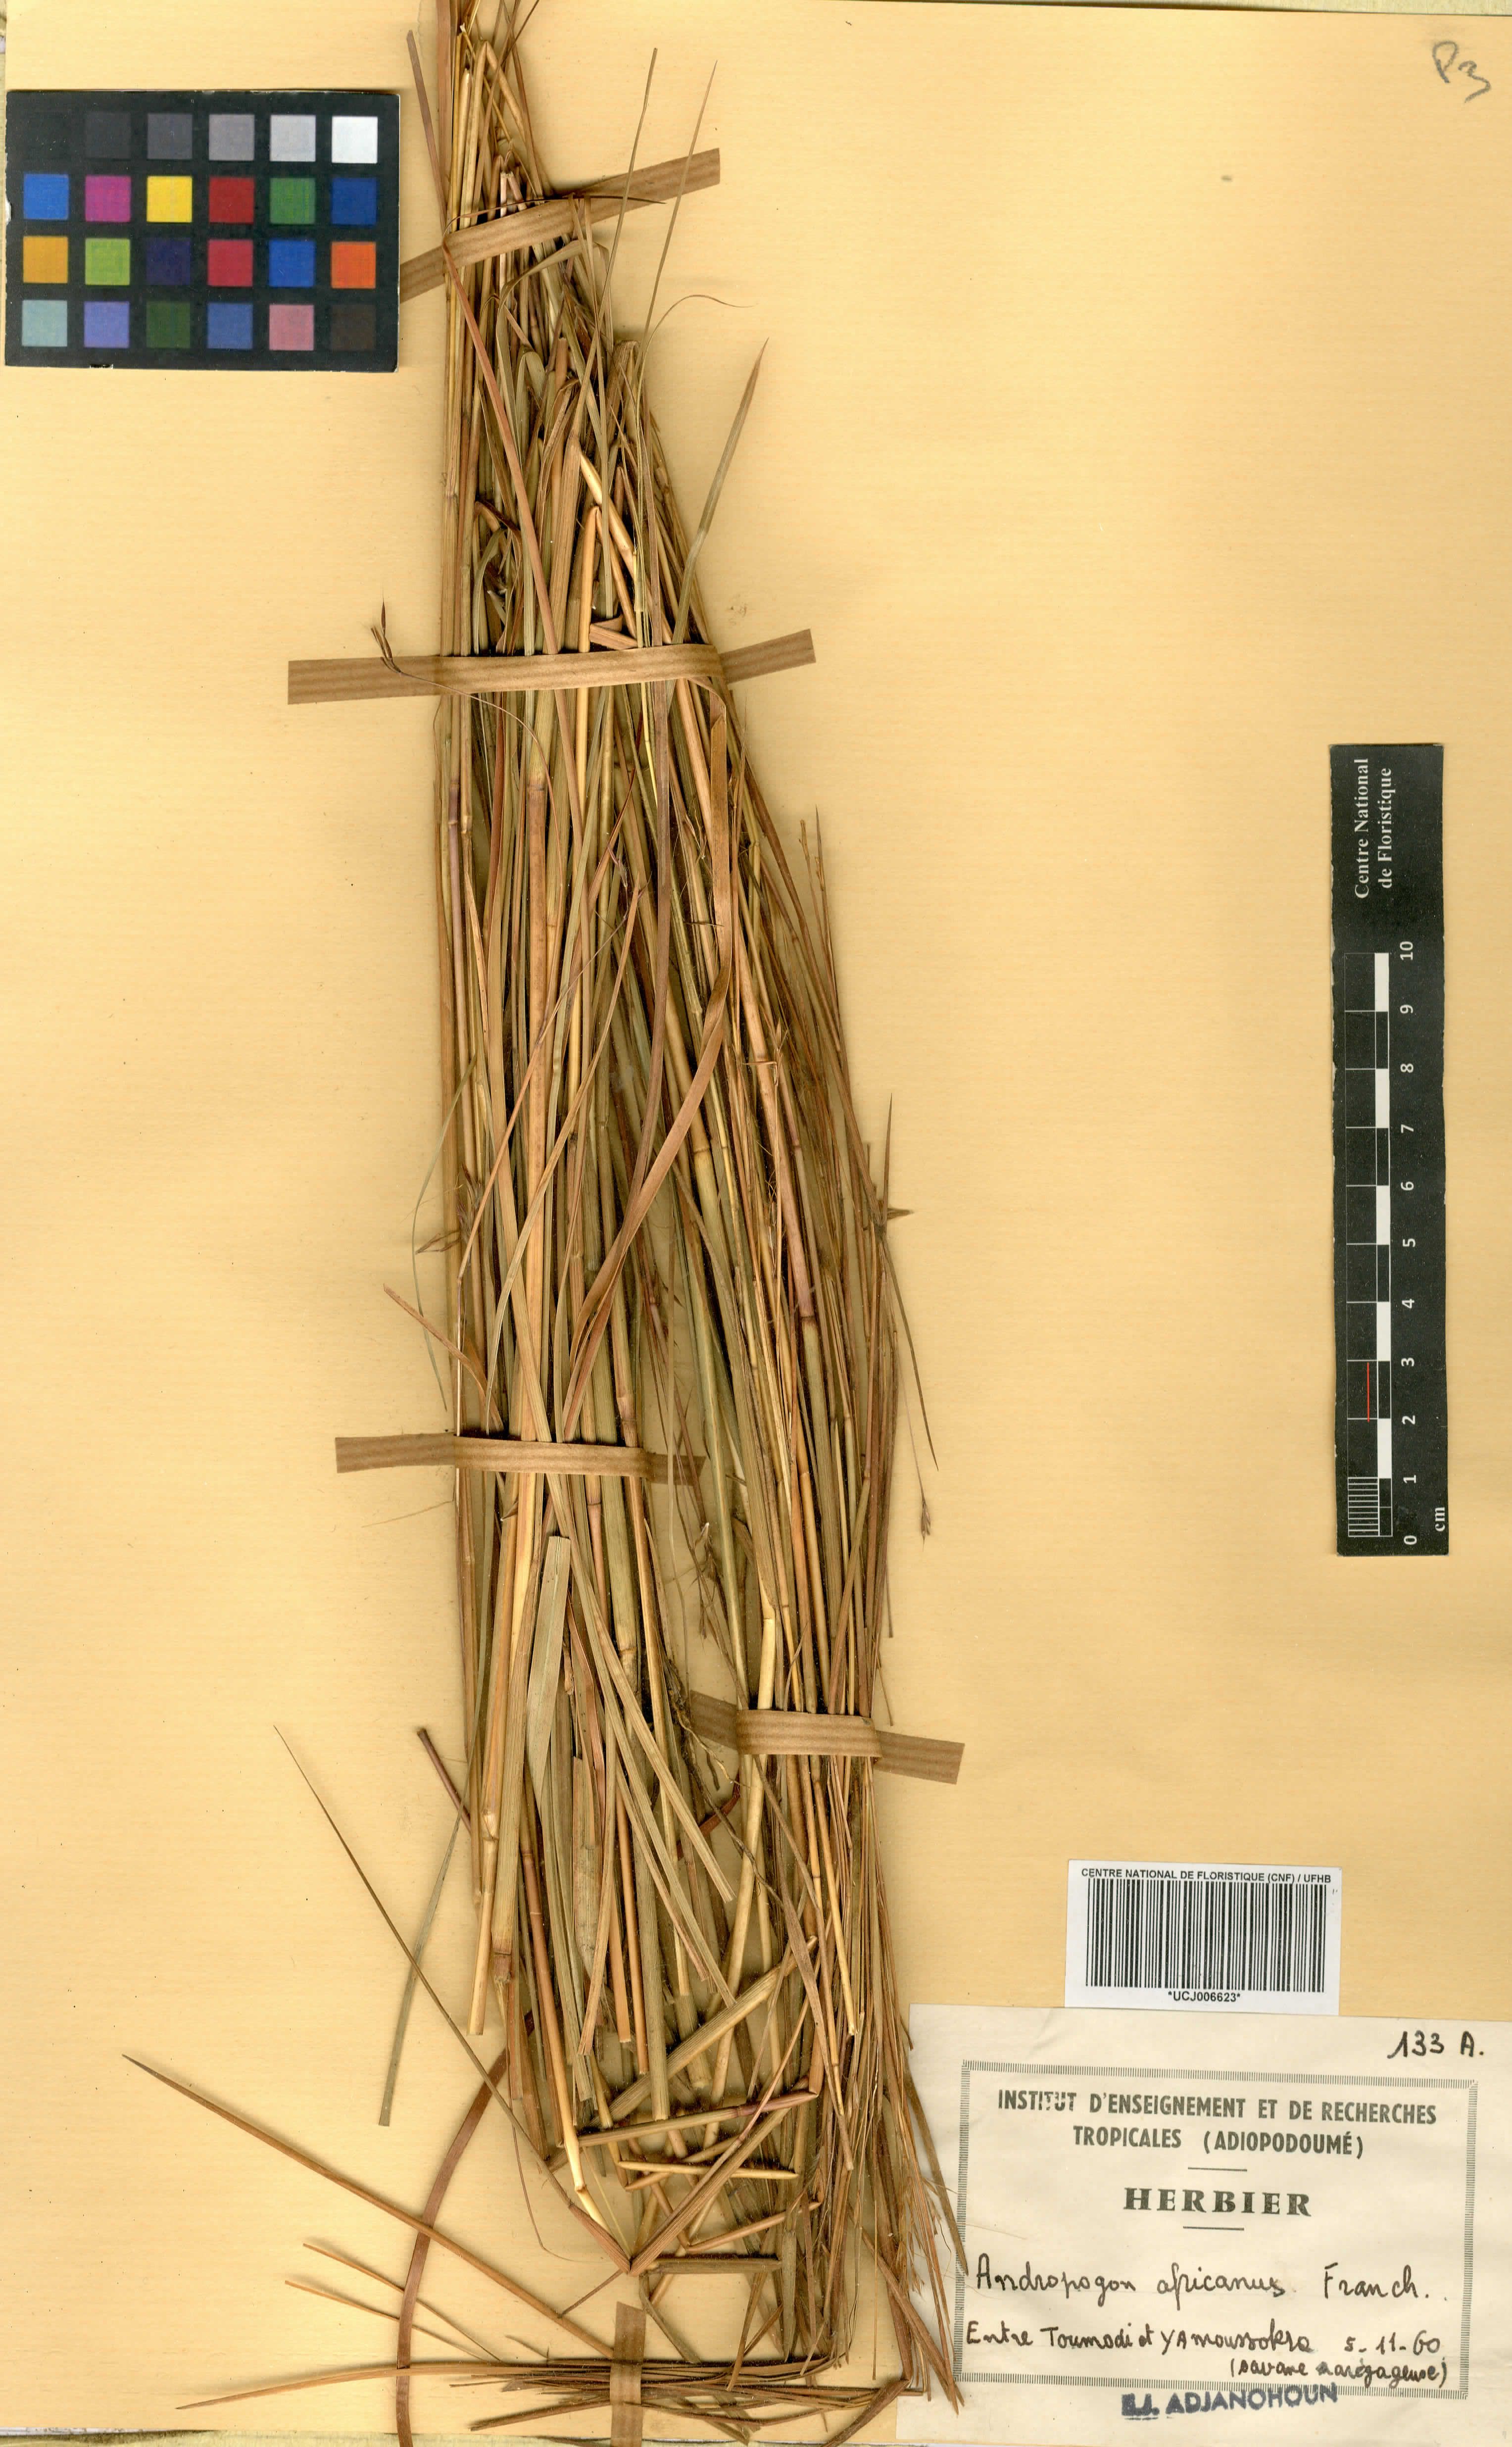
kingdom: Plantae
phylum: Tracheophyta
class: Liliopsida
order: Poales
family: Poaceae
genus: Andropogon
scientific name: Andropogon africanus
